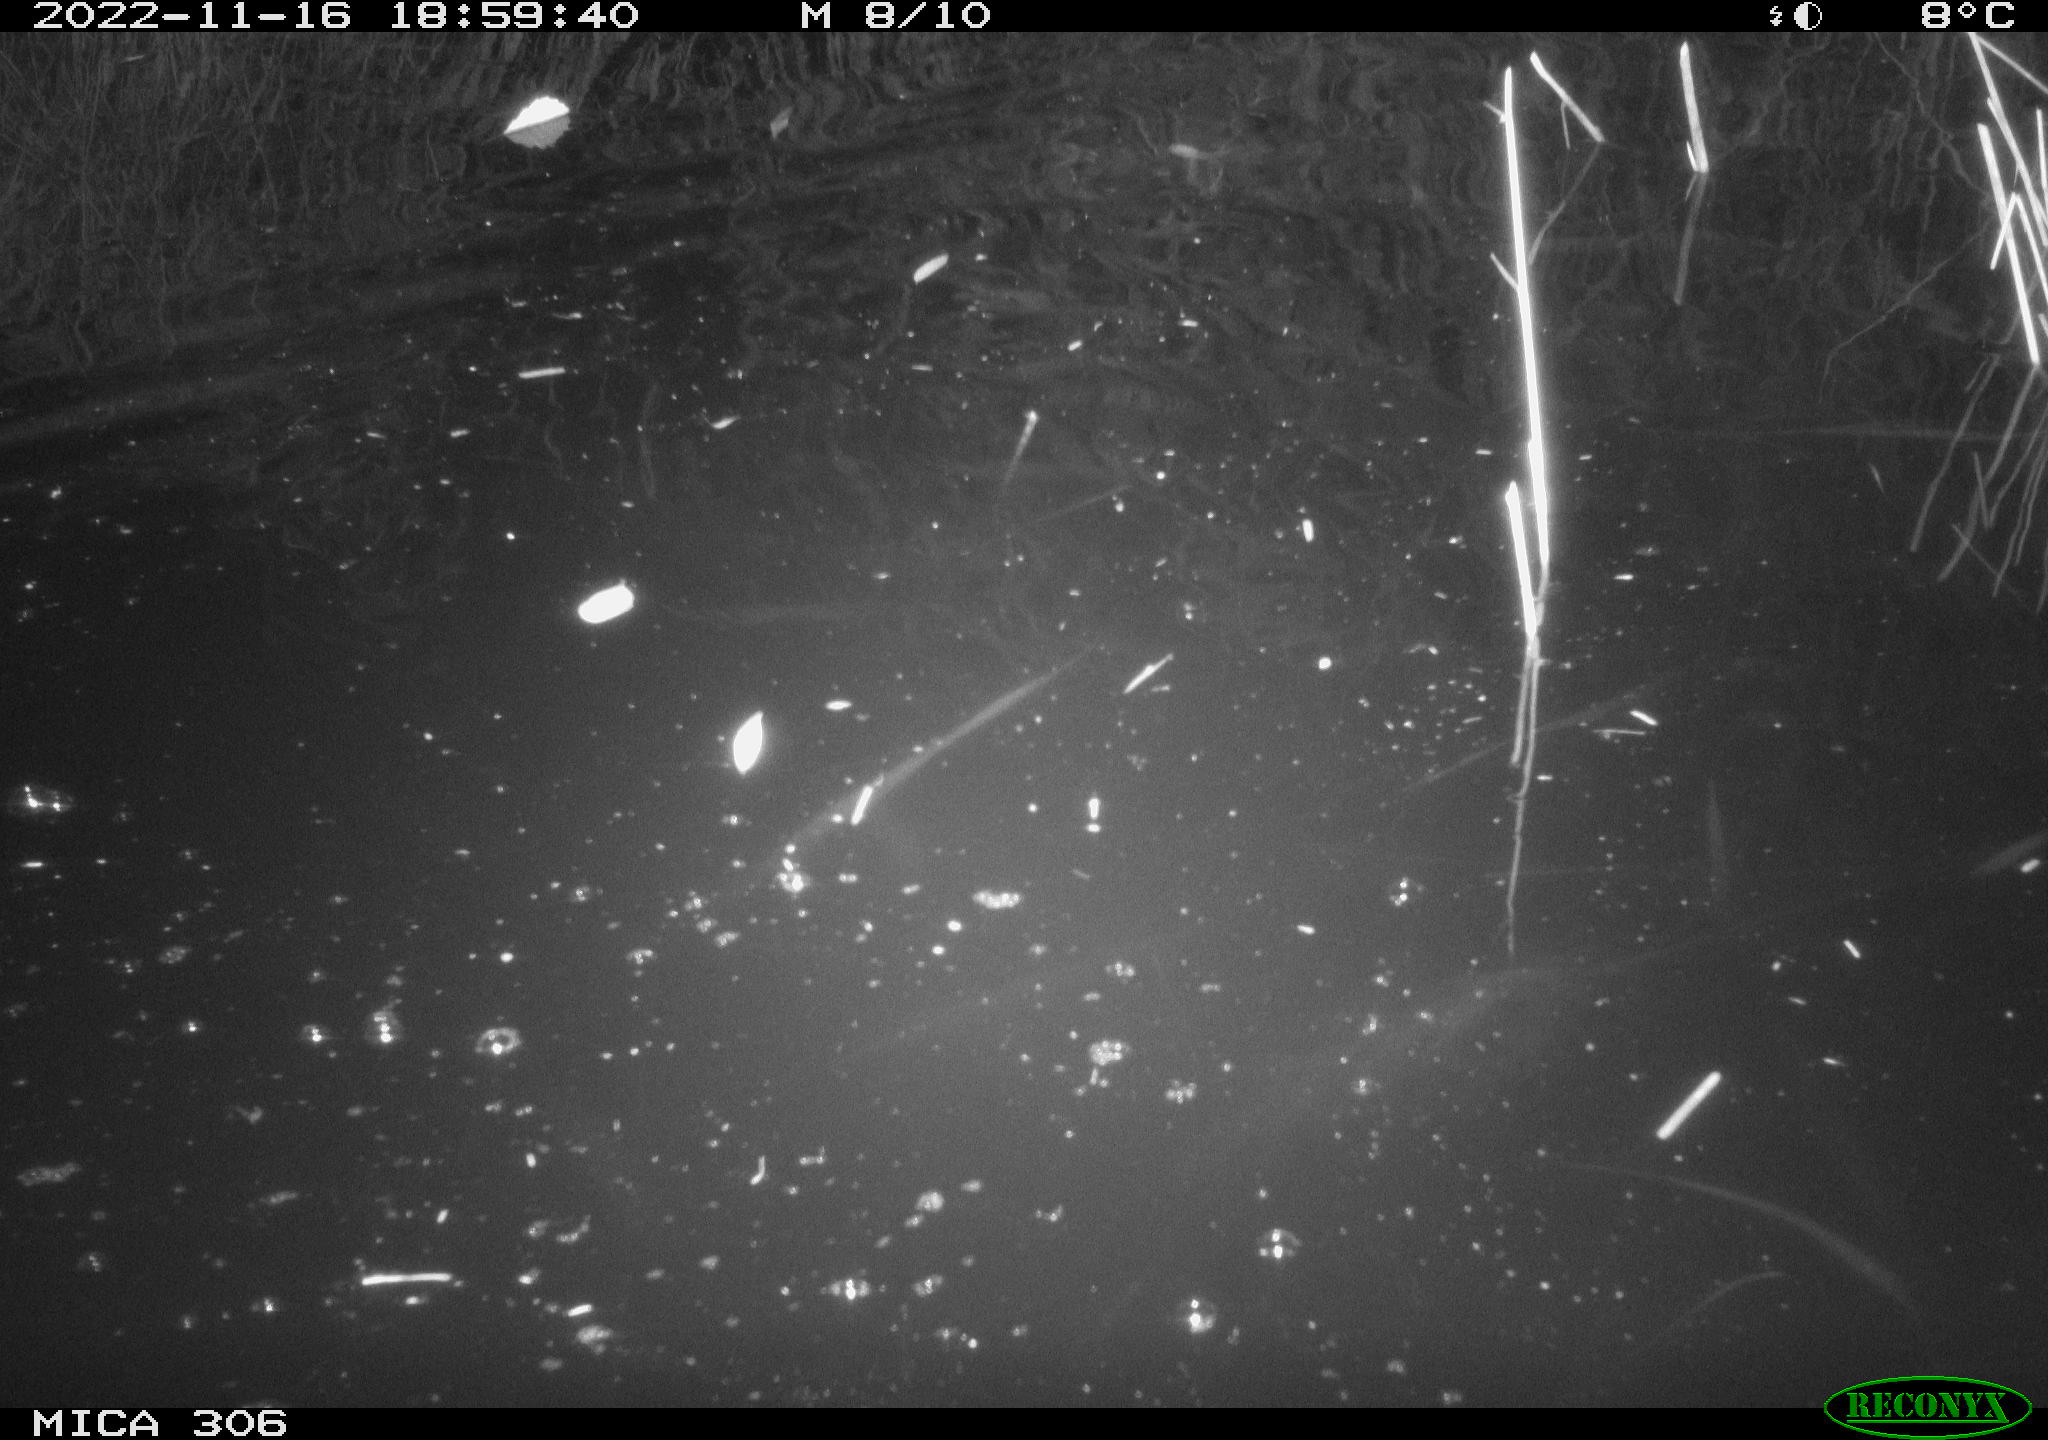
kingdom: Animalia
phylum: Chordata
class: Mammalia
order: Rodentia
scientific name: Rodentia
